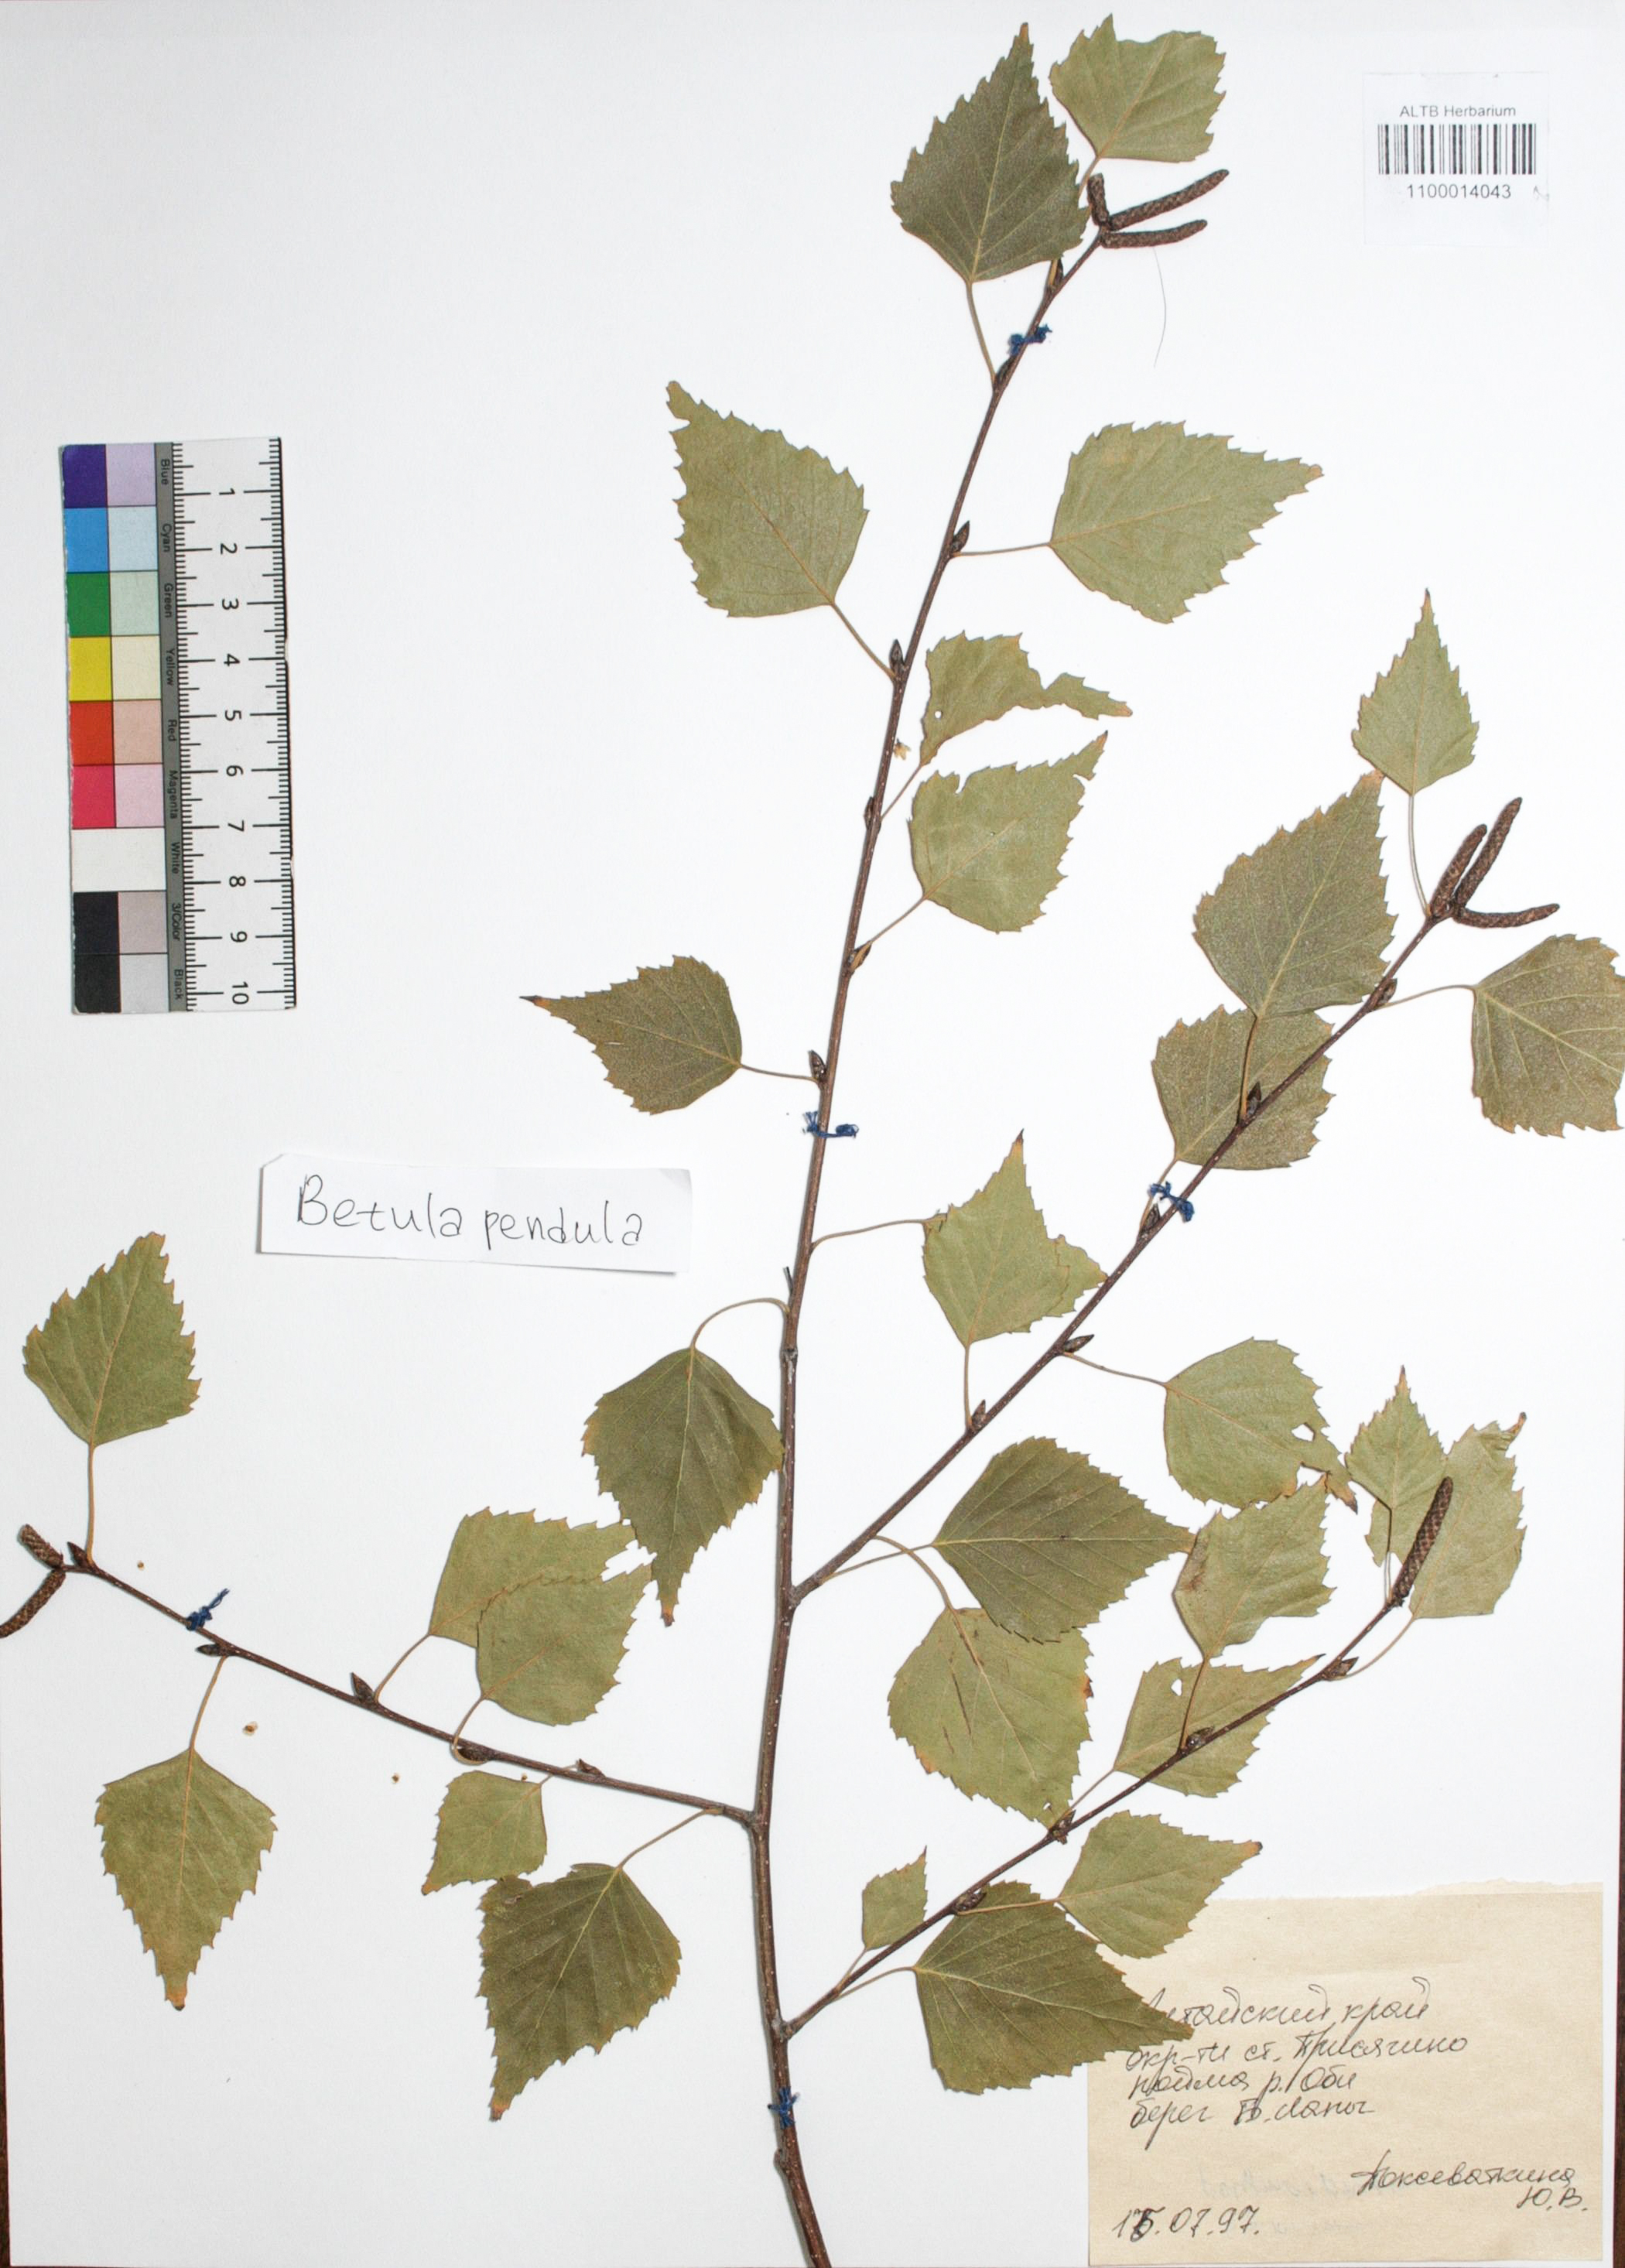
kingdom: Plantae
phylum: Tracheophyta
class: Magnoliopsida
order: Fagales
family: Betulaceae
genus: Betula
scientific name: Betula pendula
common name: Silver birch
